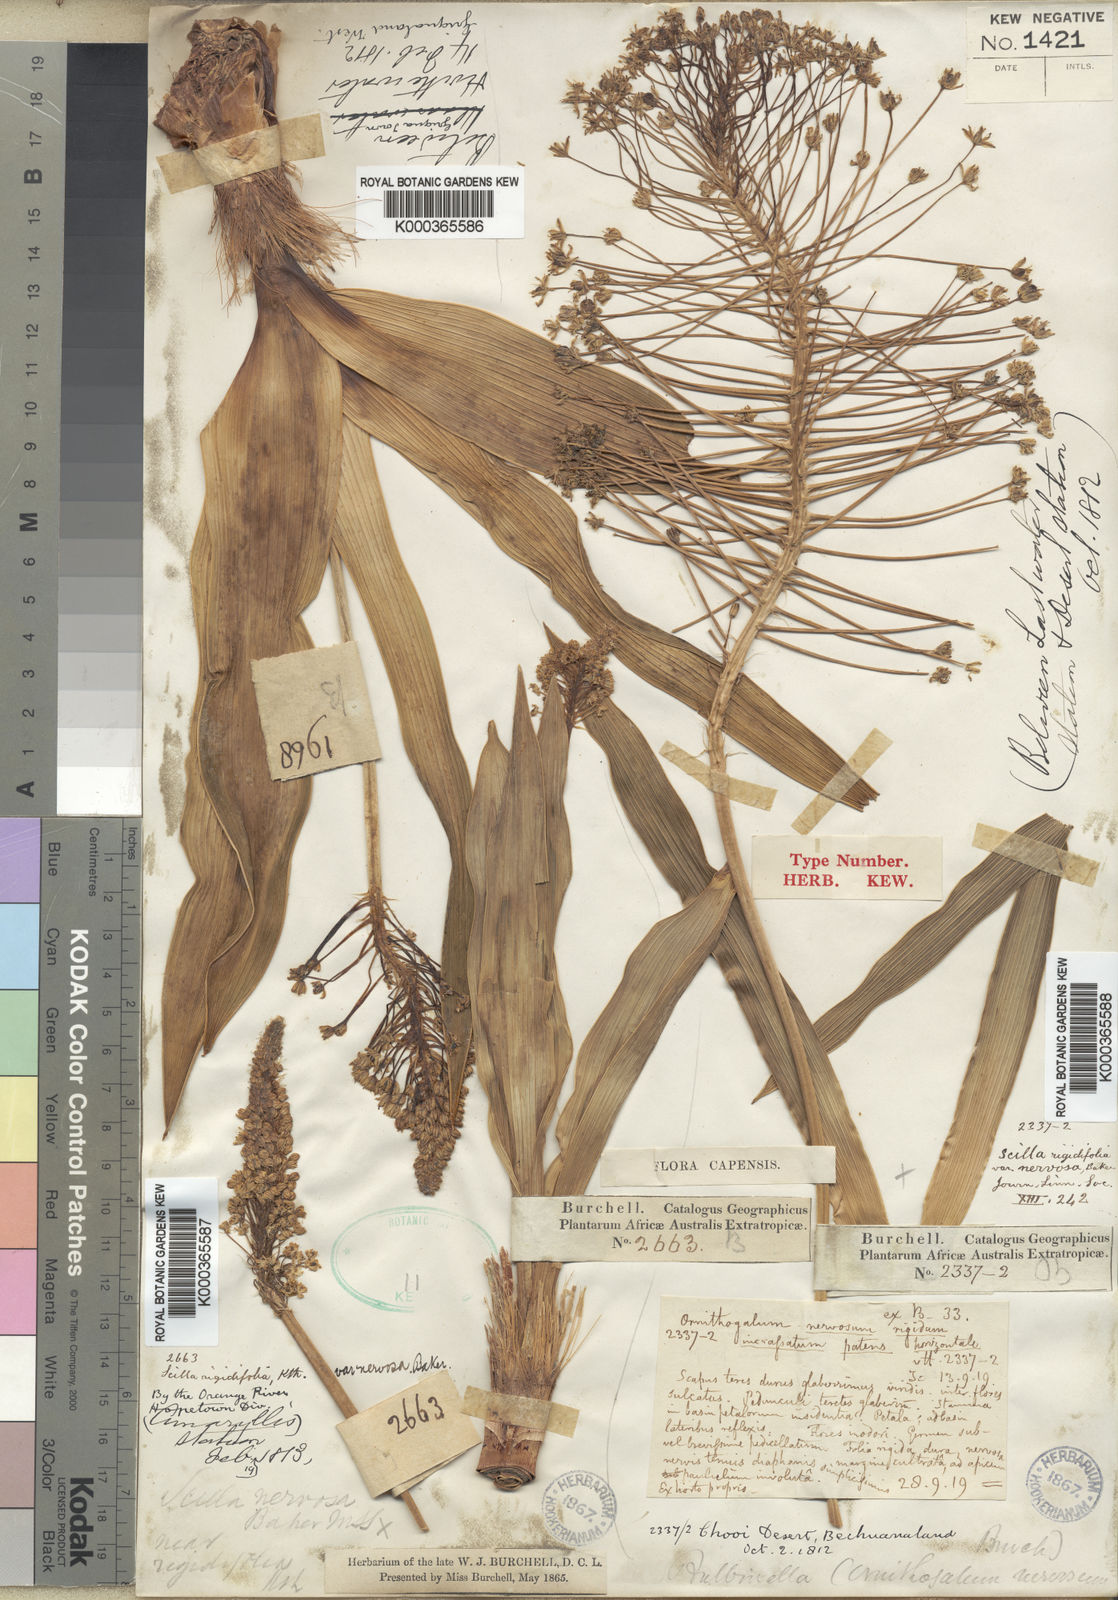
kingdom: Plantae
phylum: Tracheophyta
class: Liliopsida
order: Asparagales
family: Asparagaceae
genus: Schizocarphus
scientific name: Schizocarphus nervosus
